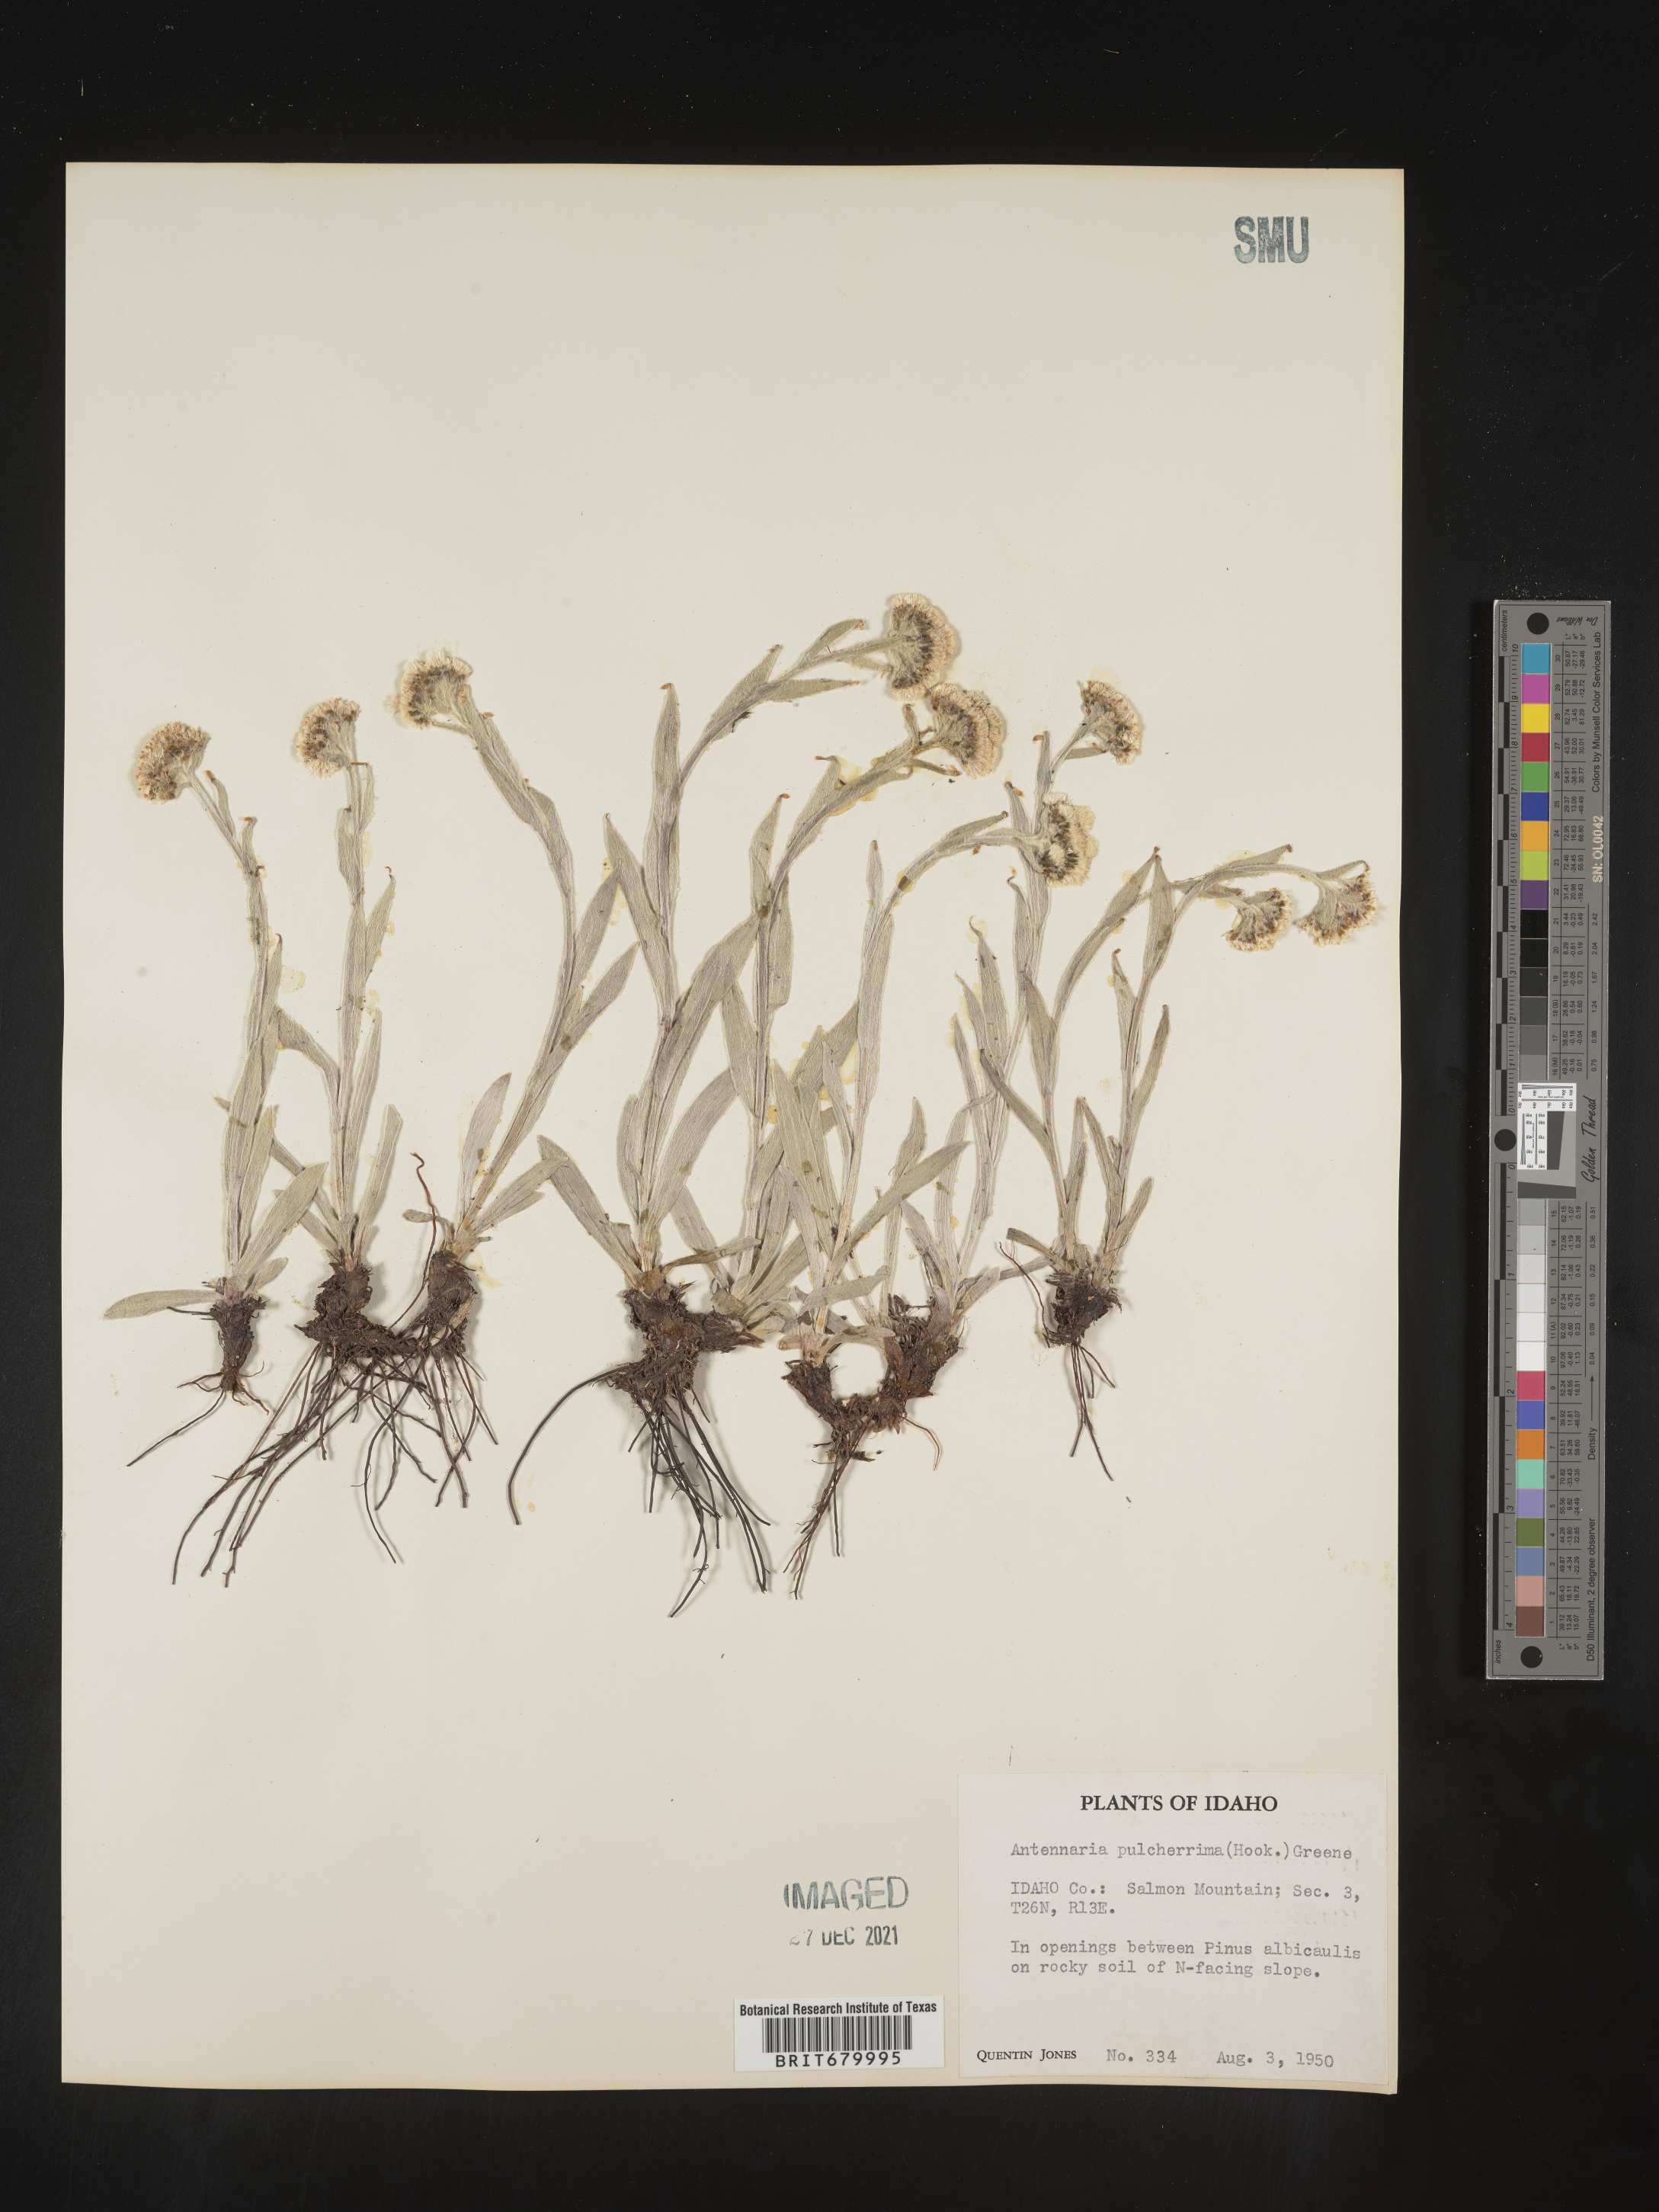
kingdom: Plantae
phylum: Tracheophyta
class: Magnoliopsida
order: Asterales
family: Asteraceae
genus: Antennaria
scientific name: Antennaria pulcherrima
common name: Handsome pussytoes
